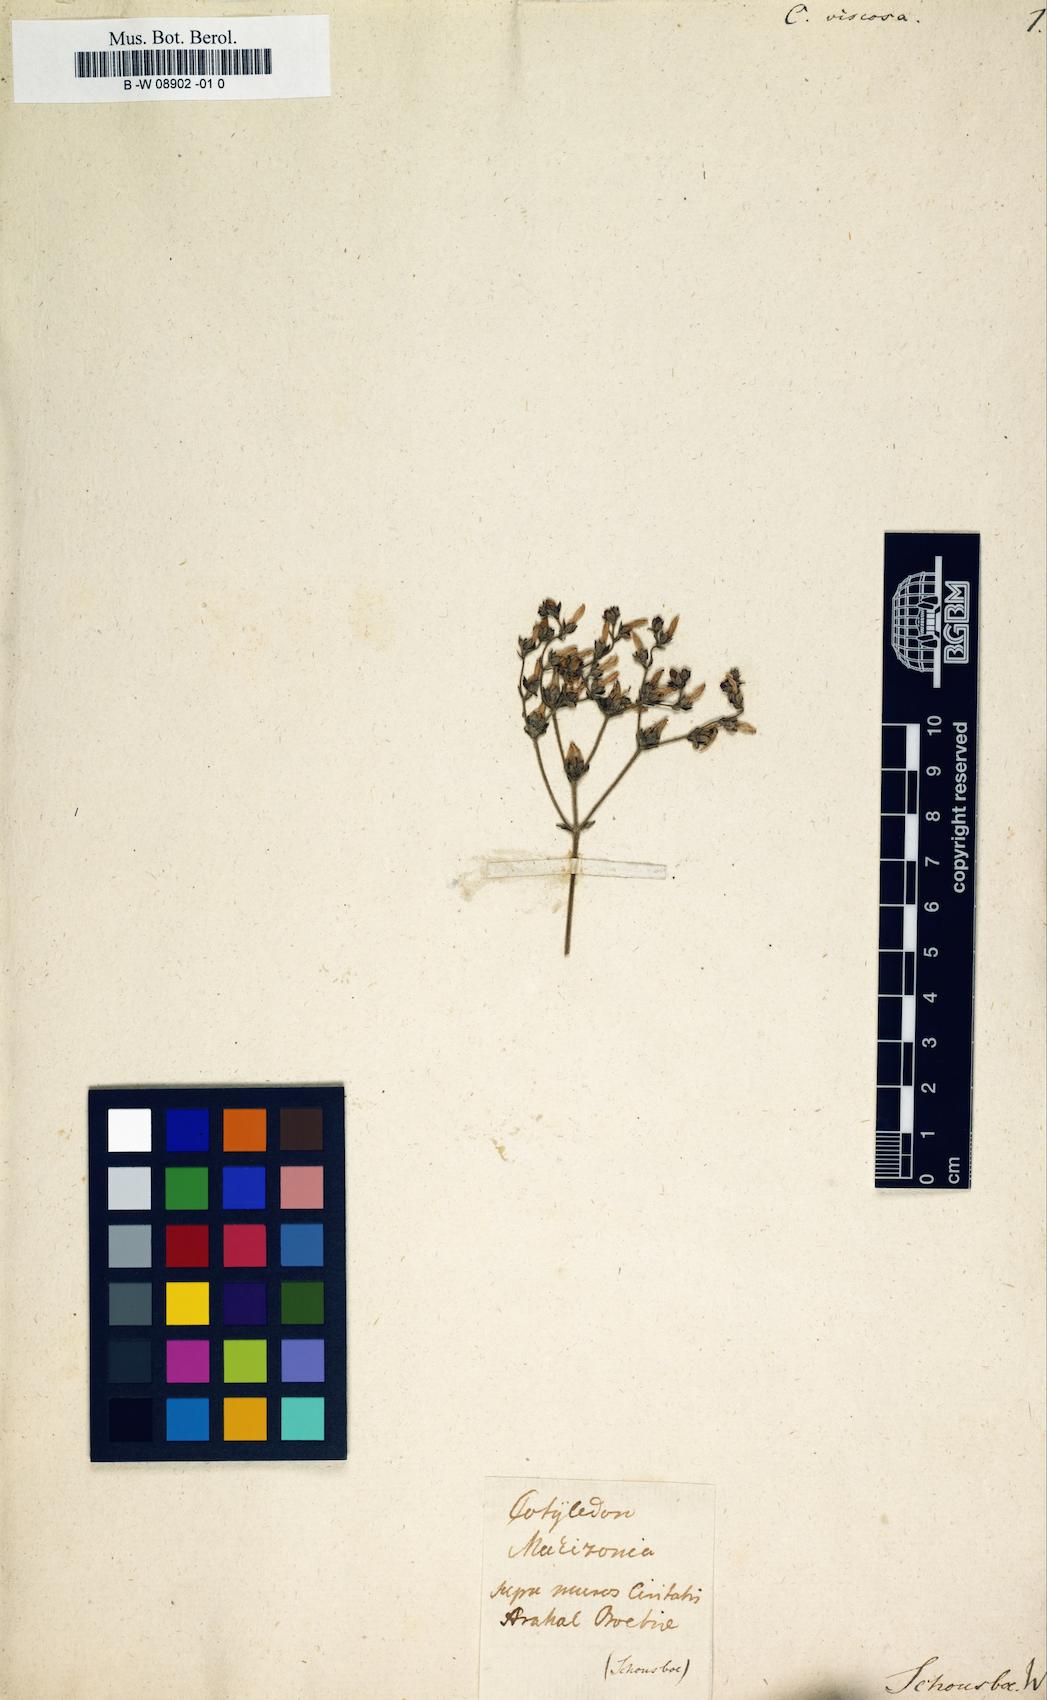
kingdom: Plantae
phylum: Tracheophyta
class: Magnoliopsida
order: Saxifragales
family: Crassulaceae
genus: Sedum
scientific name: Sedum mucizonia
